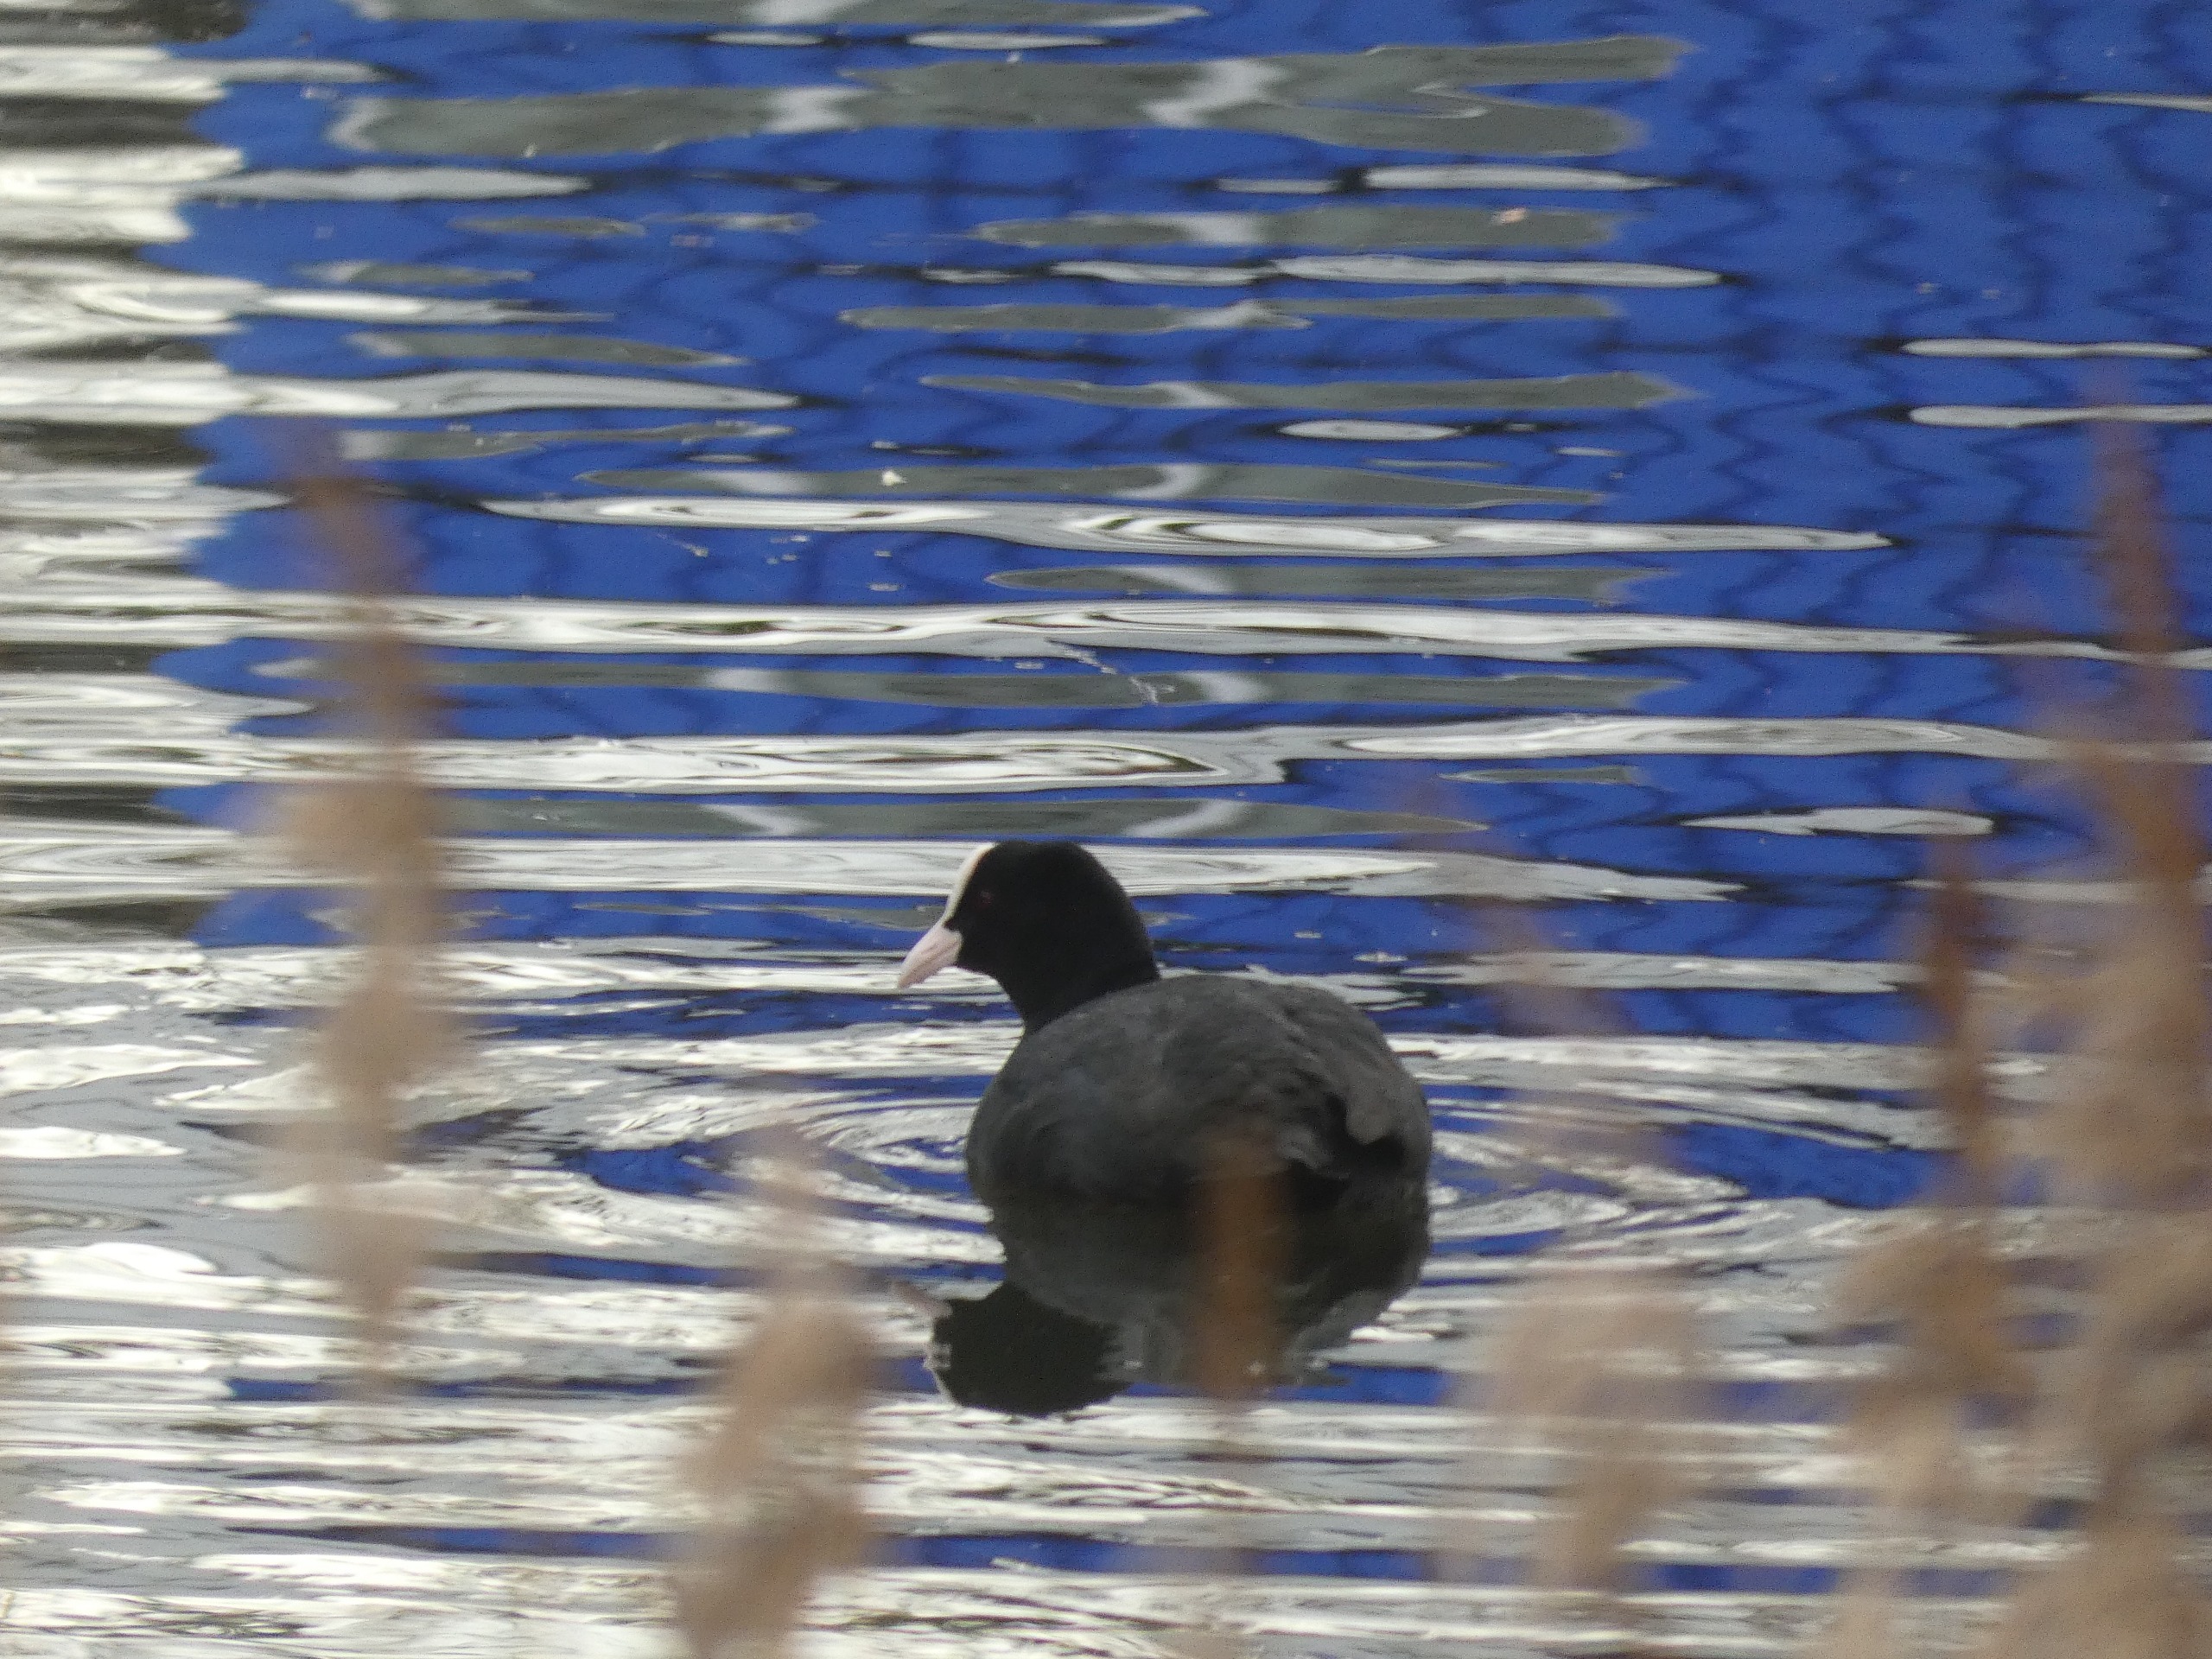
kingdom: Animalia
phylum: Chordata
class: Aves
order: Gruiformes
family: Rallidae
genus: Fulica
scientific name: Fulica atra
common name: Blishøne
